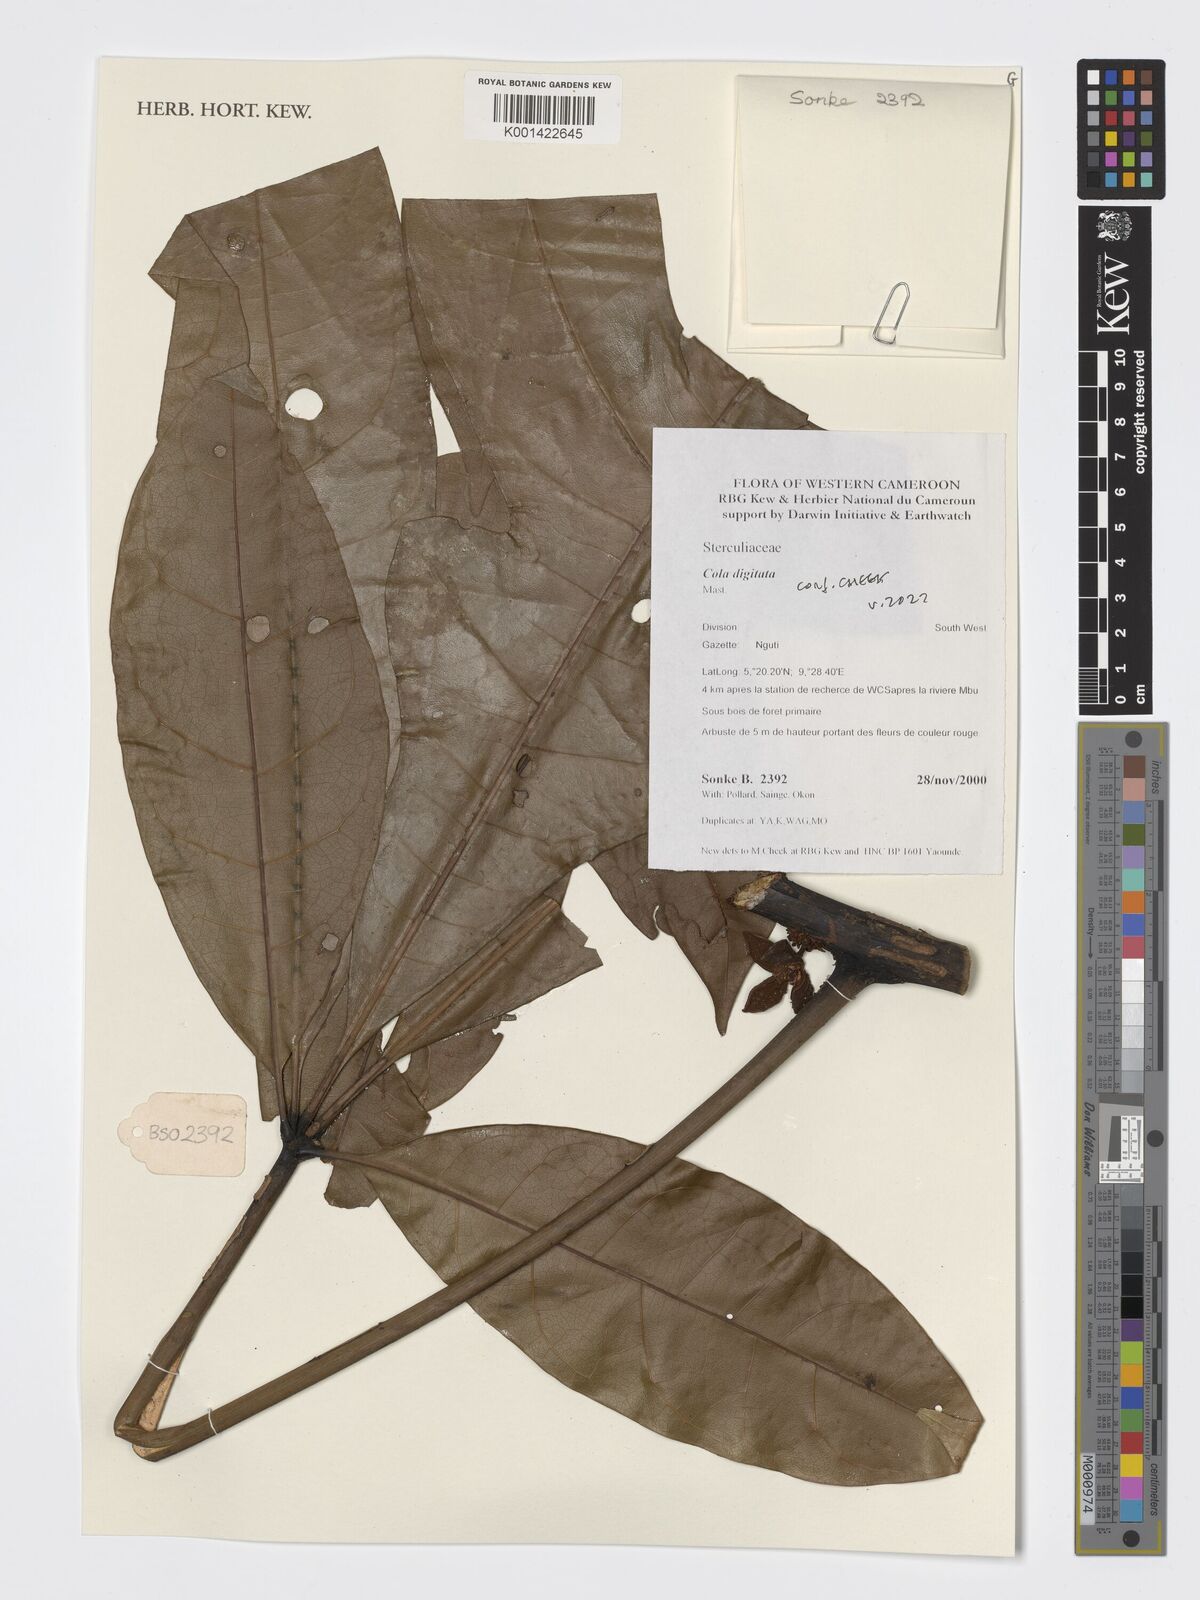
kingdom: Plantae
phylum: Tracheophyta
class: Magnoliopsida
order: Malvales
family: Malvaceae
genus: Cola
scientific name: Cola digitata
